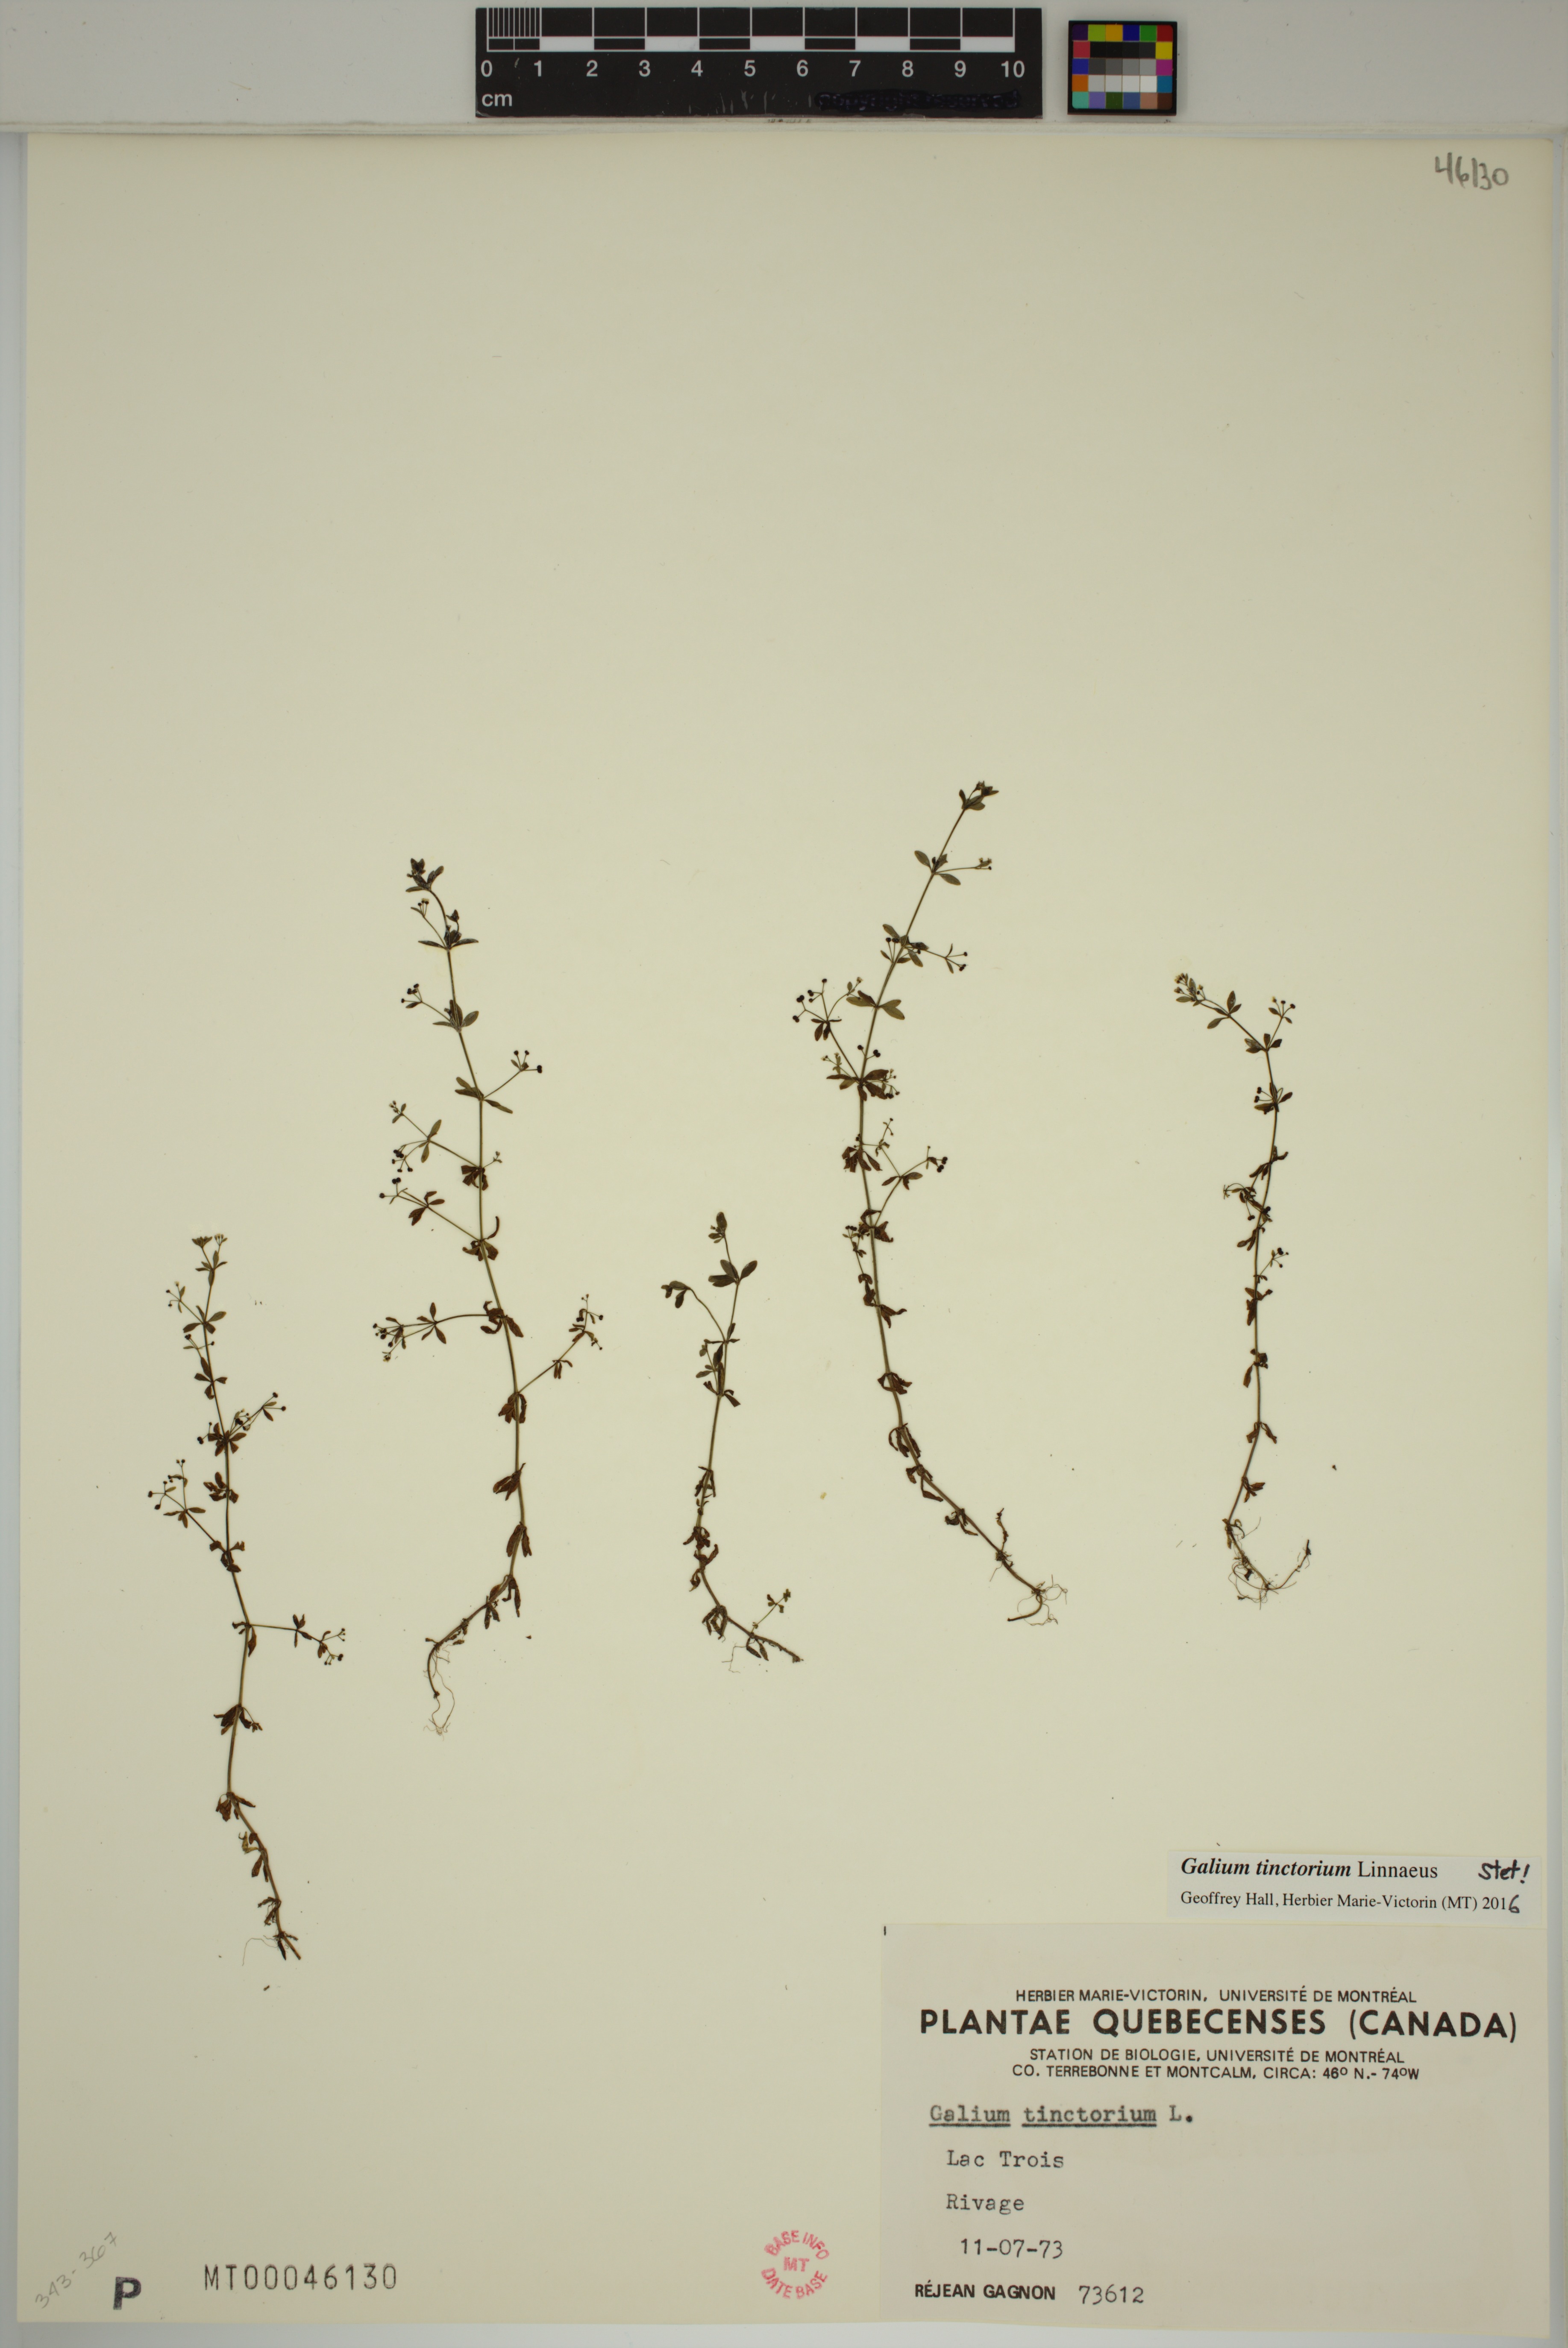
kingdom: Plantae
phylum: Tracheophyta
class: Magnoliopsida
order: Gentianales
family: Rubiaceae
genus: Galium
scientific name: Galium tinctorium
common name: Bedstraw
